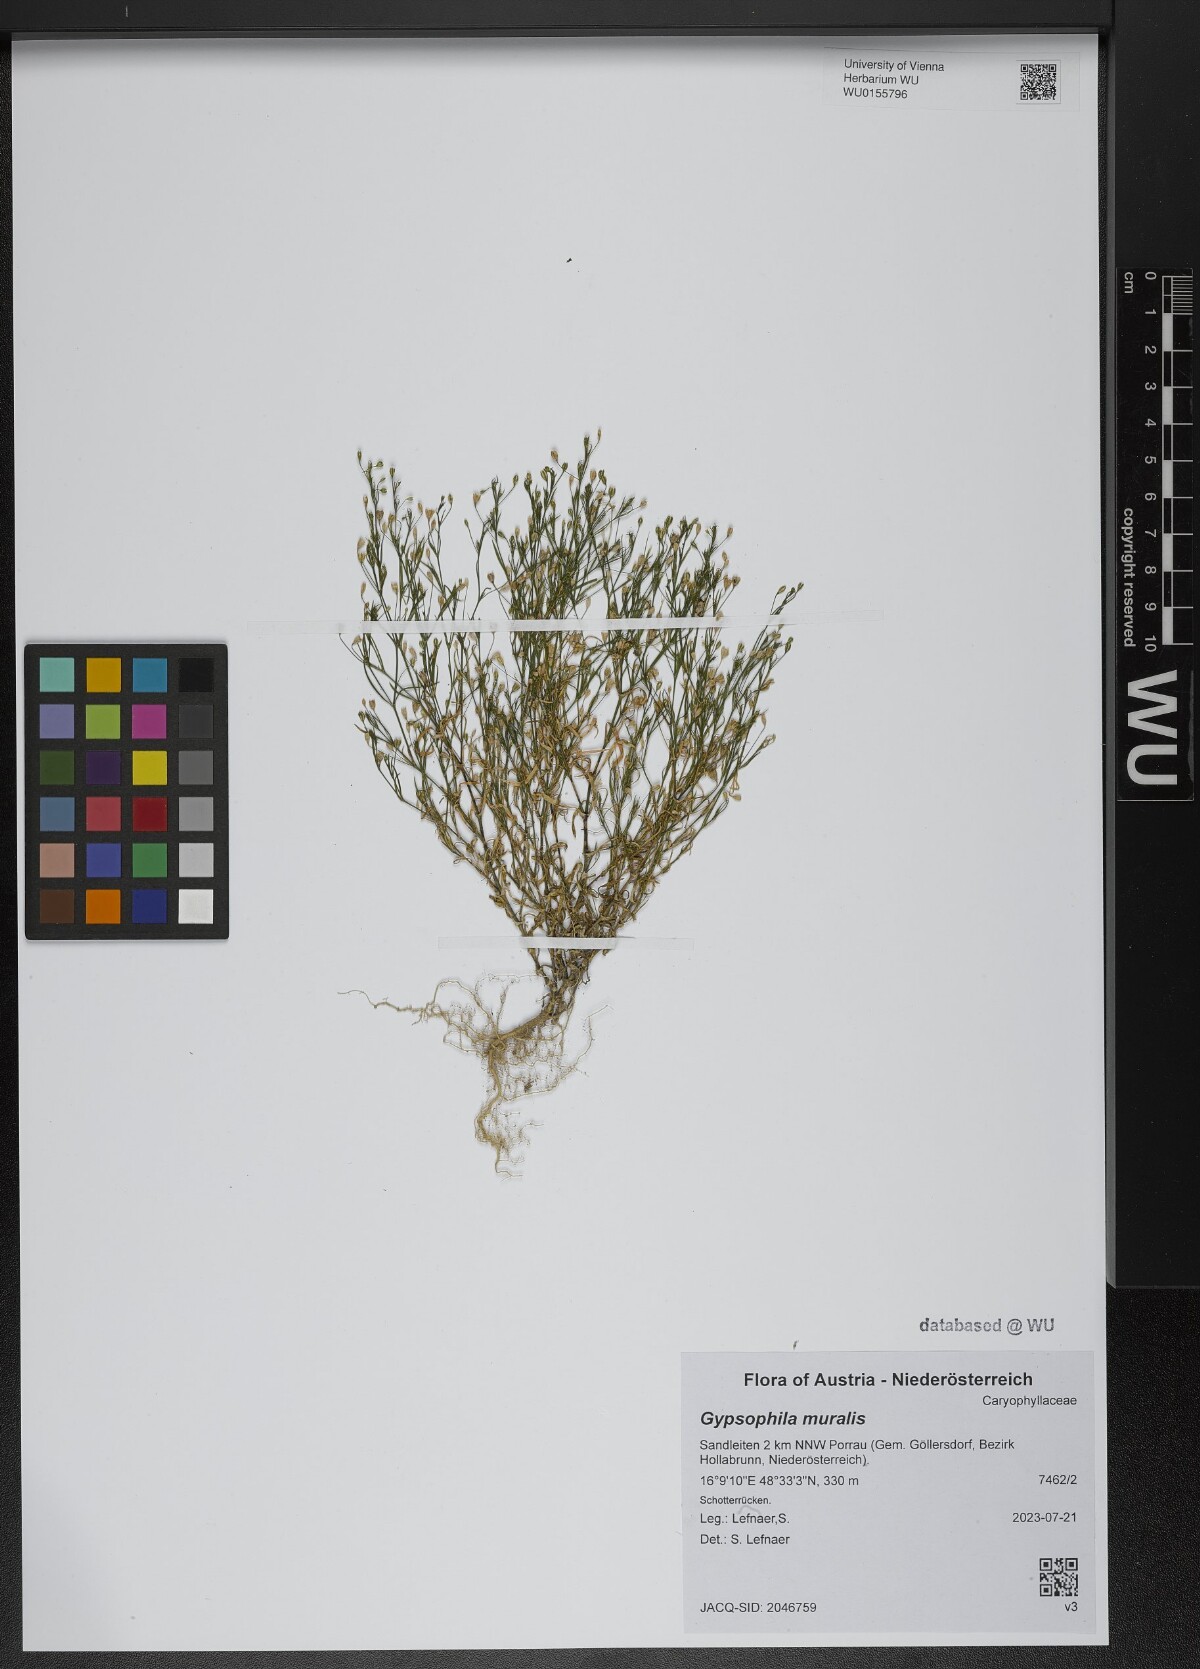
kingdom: Plantae
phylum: Tracheophyta
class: Magnoliopsida
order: Caryophyllales
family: Caryophyllaceae
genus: Psammophiliella
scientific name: Psammophiliella muralis
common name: Cushion baby's-breath
